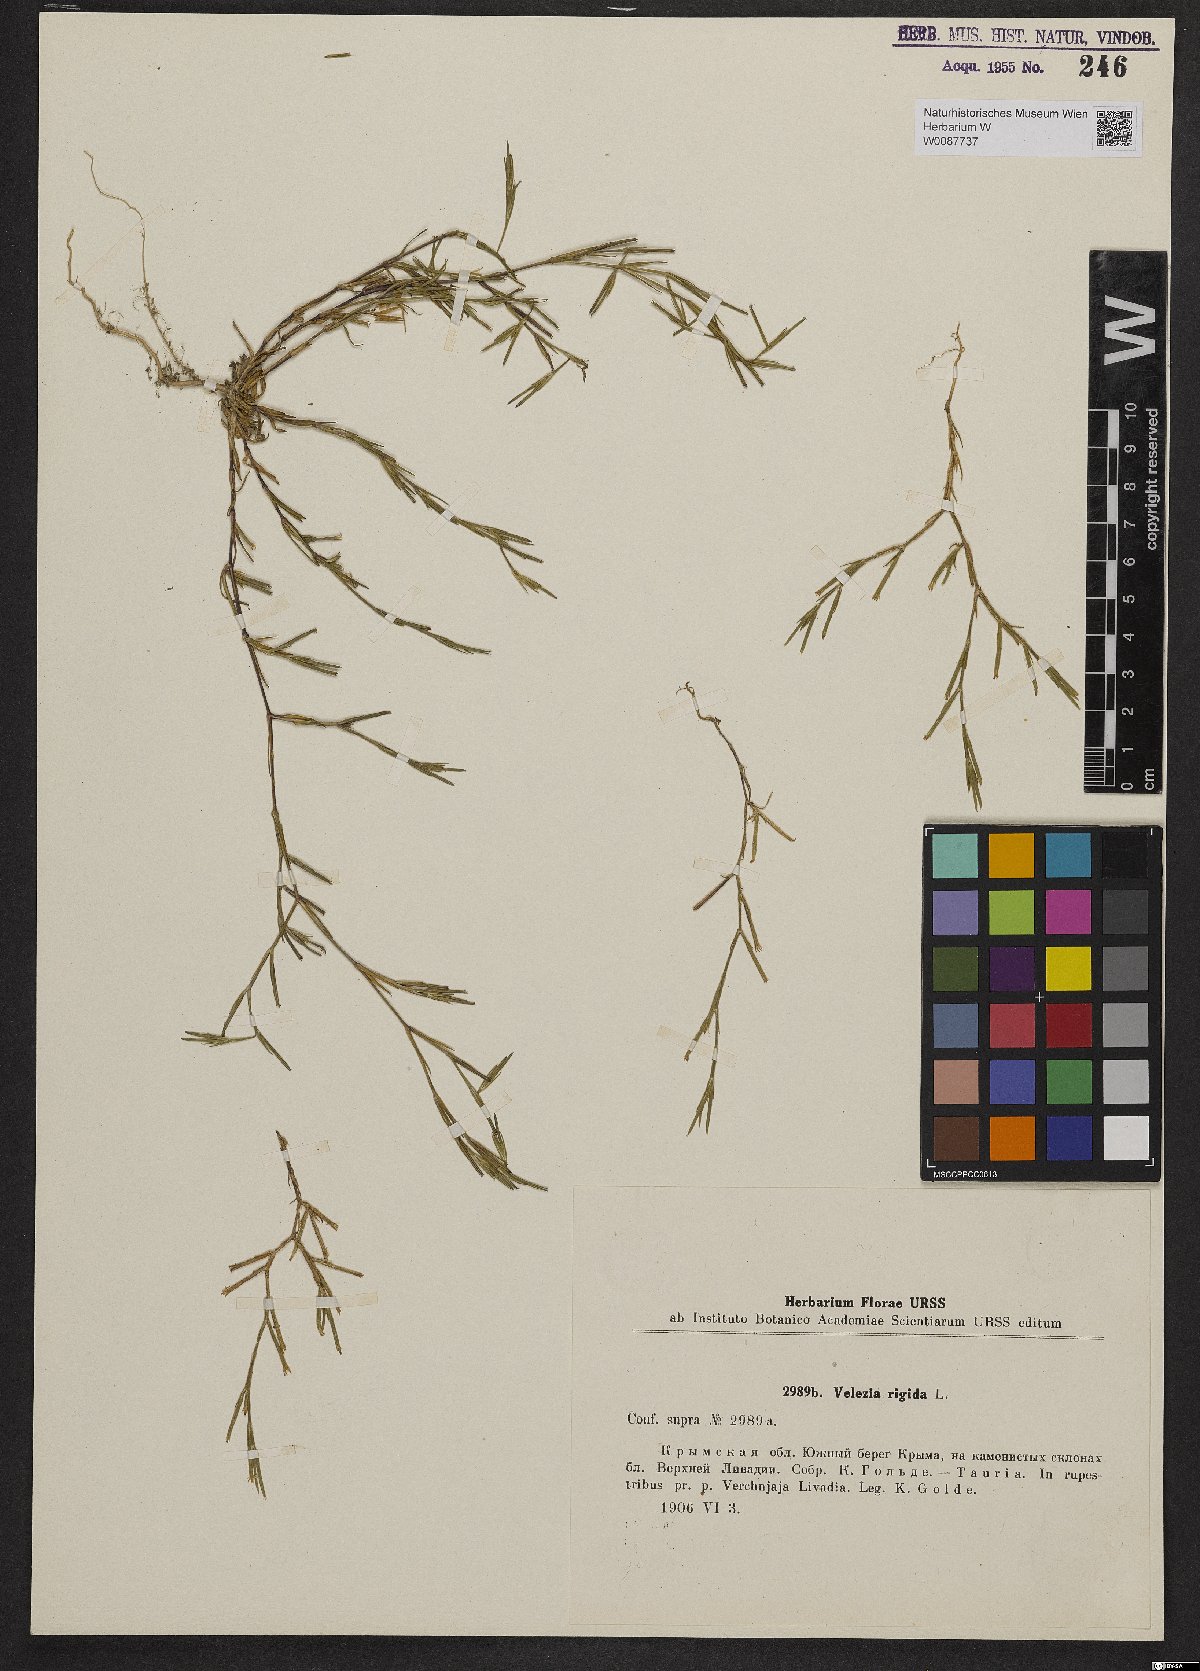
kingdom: Plantae
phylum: Tracheophyta
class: Magnoliopsida
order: Caryophyllales
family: Caryophyllaceae
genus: Dianthus
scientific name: Dianthus nudiflorus
